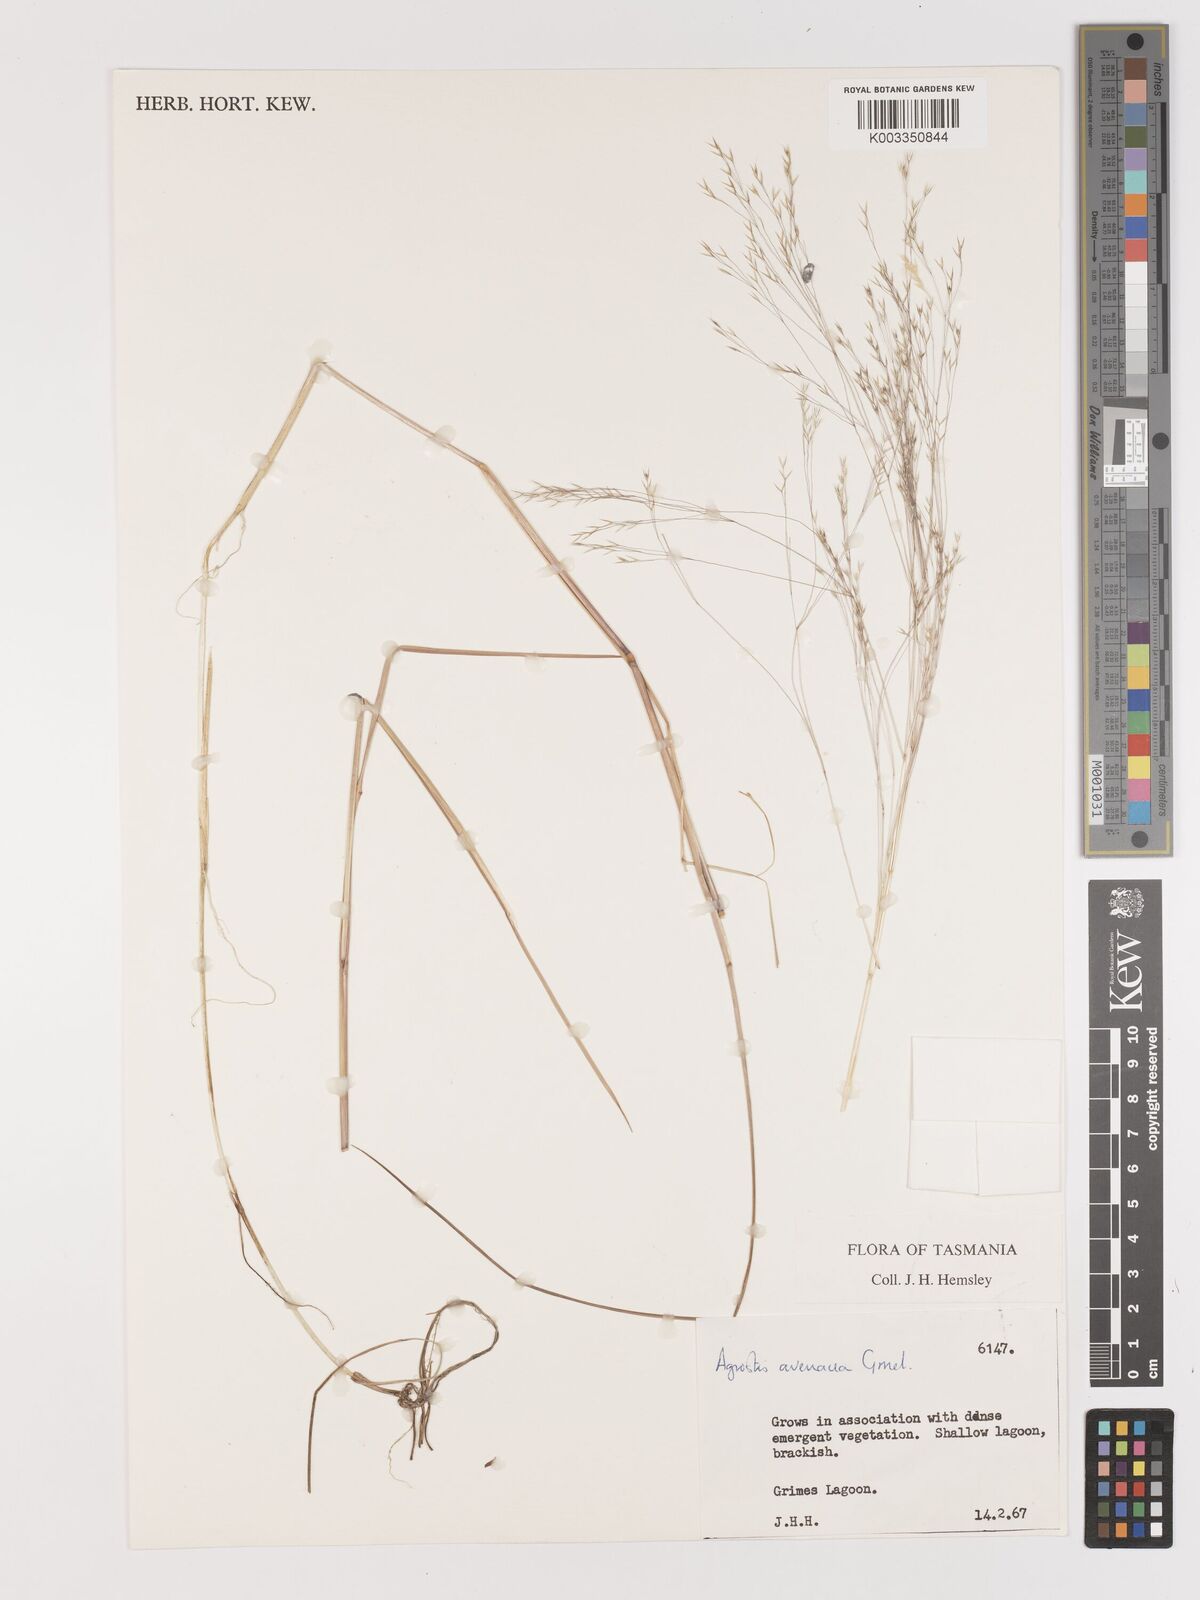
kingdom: Plantae
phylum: Tracheophyta
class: Liliopsida
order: Poales
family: Poaceae
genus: Lachnagrostis
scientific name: Lachnagrostis filiformis
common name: Bentgrass
